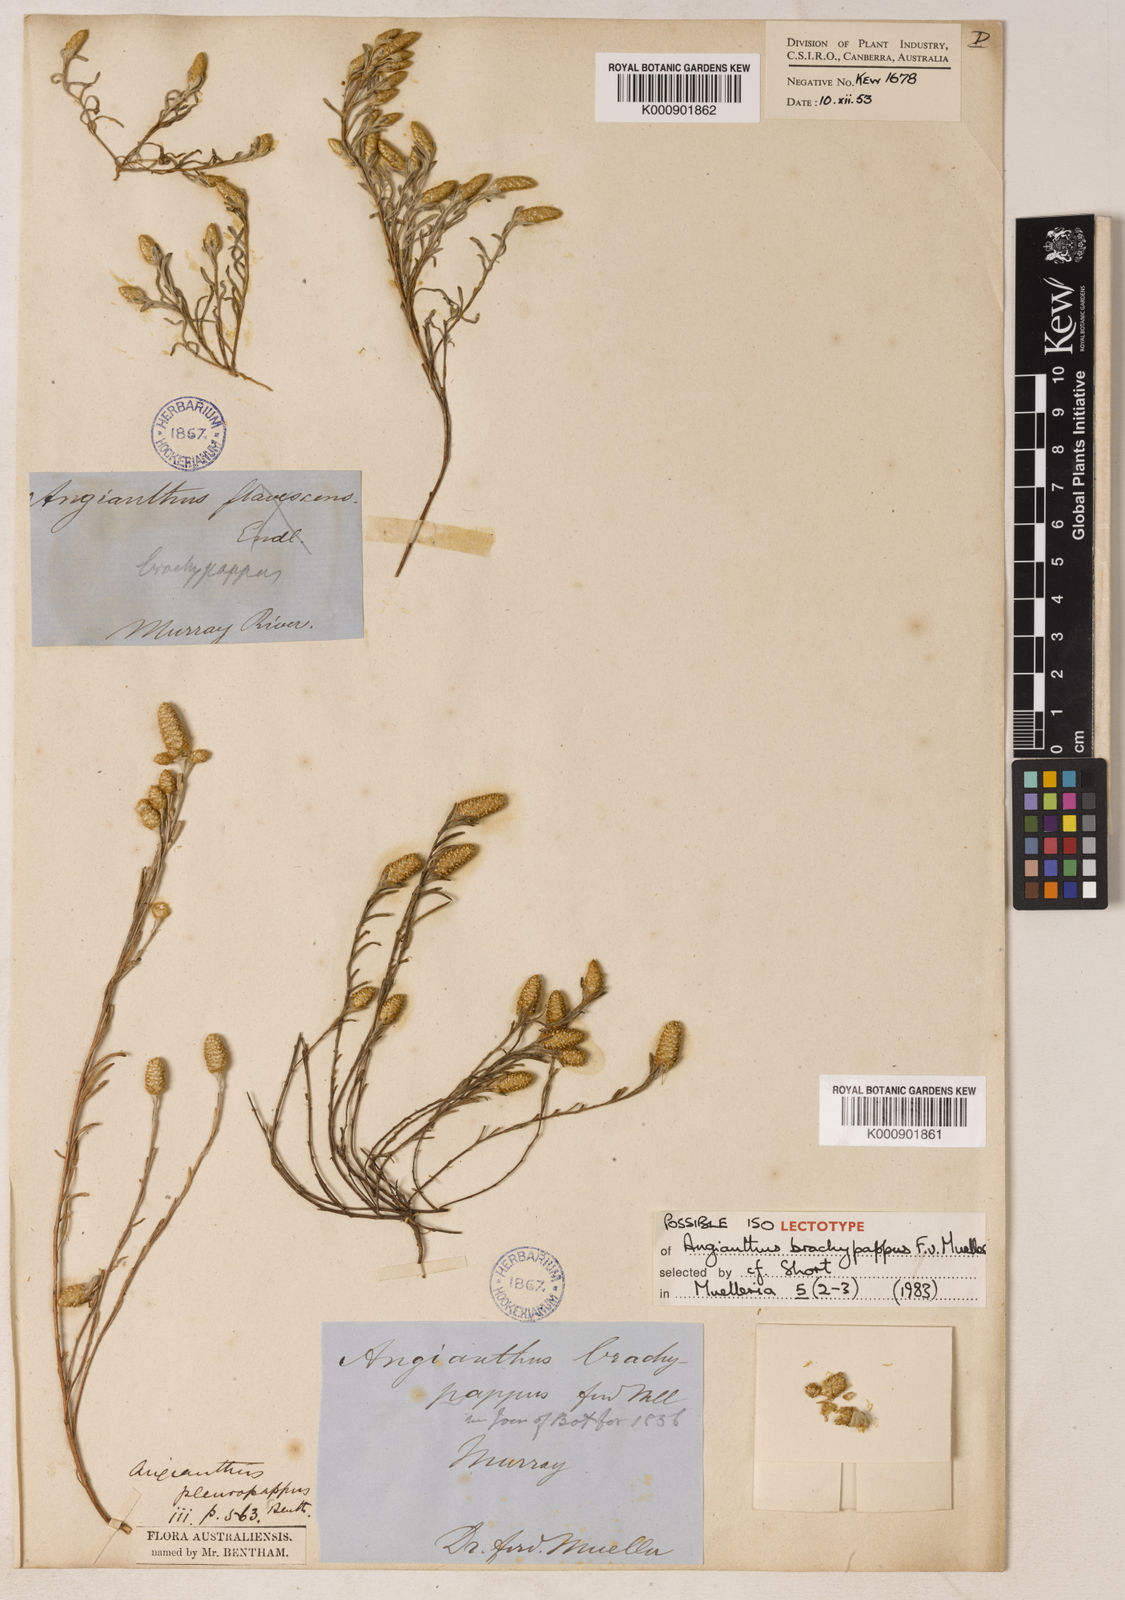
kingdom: Plantae
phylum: Tracheophyta
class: Magnoliopsida
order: Asterales
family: Asteraceae
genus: Angianthus
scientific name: Angianthus brachypappus
